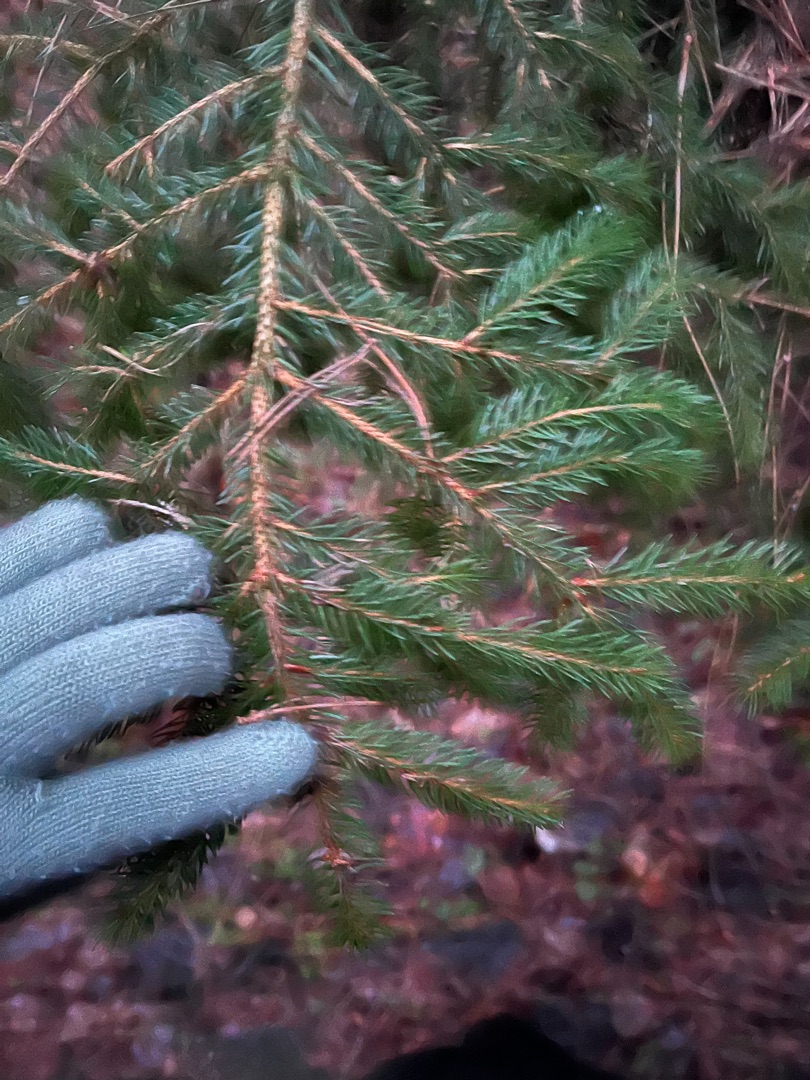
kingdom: Plantae
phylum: Tracheophyta
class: Pinopsida
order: Pinales
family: Pinaceae
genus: Picea
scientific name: Picea abies
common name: Rød-gran
